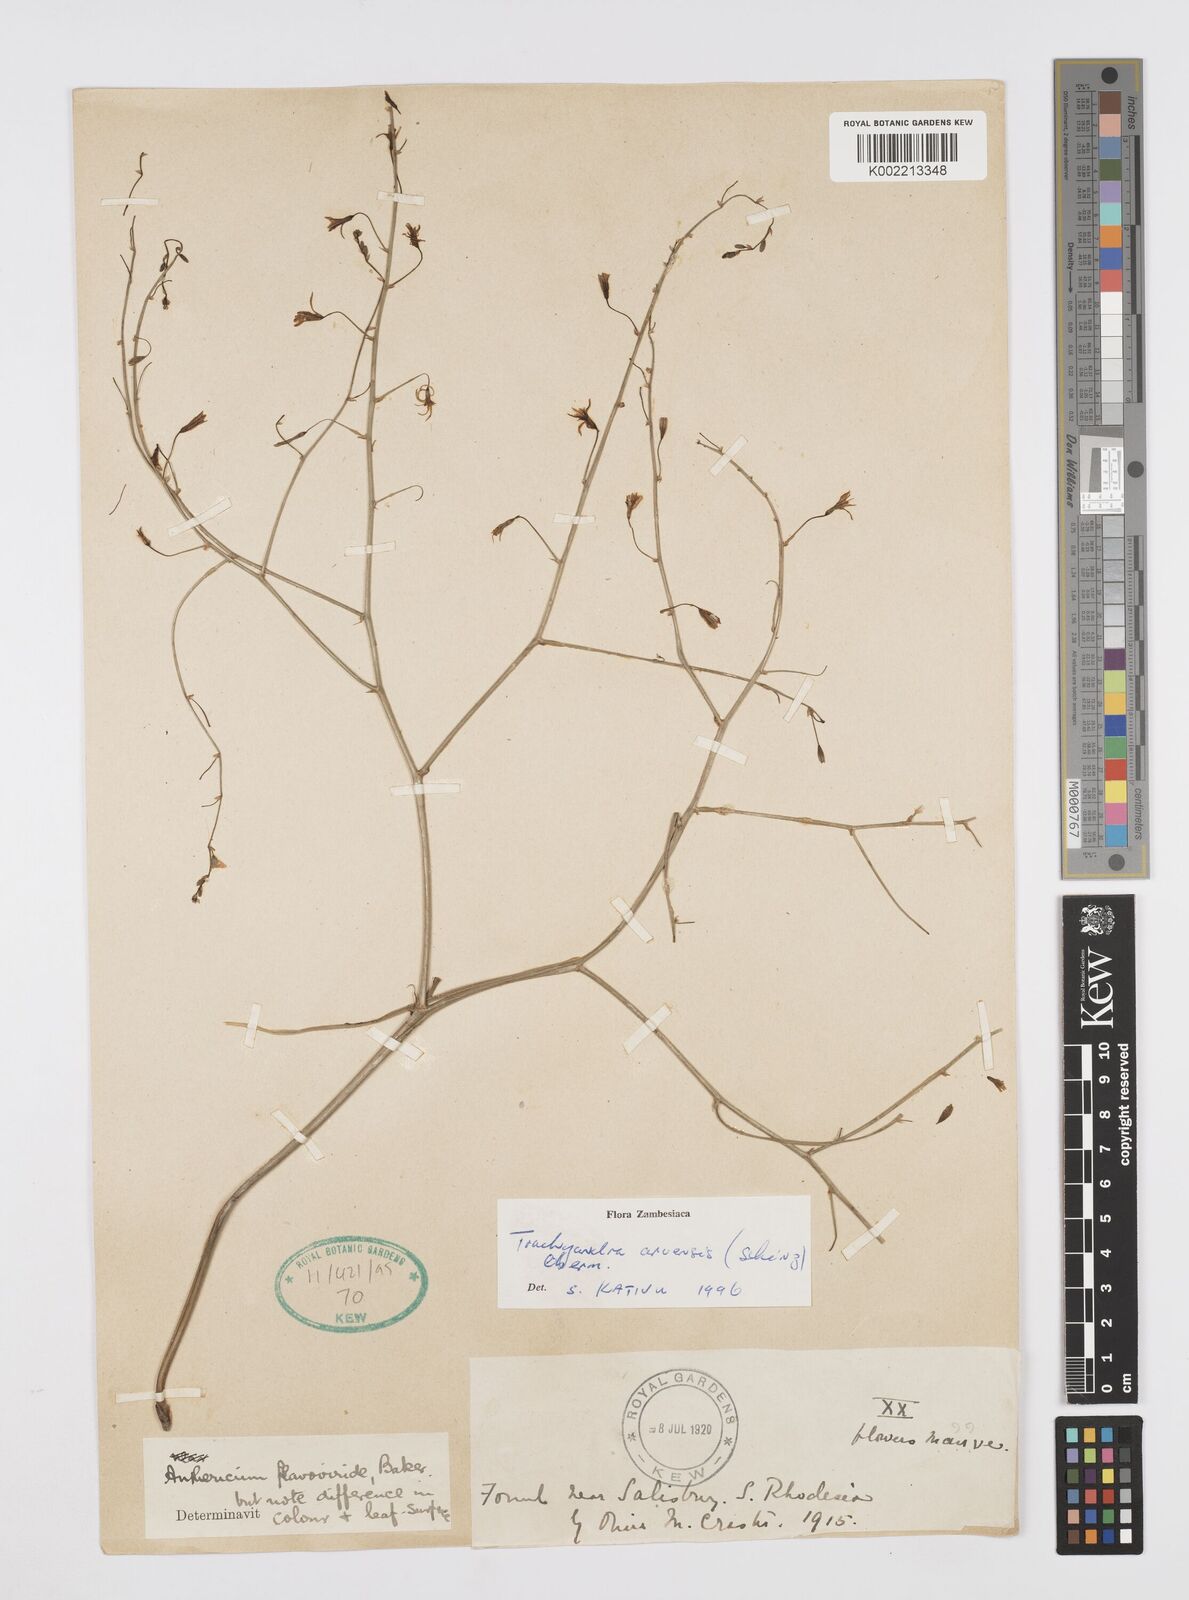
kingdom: Plantae
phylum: Tracheophyta
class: Liliopsida
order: Asparagales
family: Asphodelaceae
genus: Trachyandra
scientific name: Trachyandra arvensis
